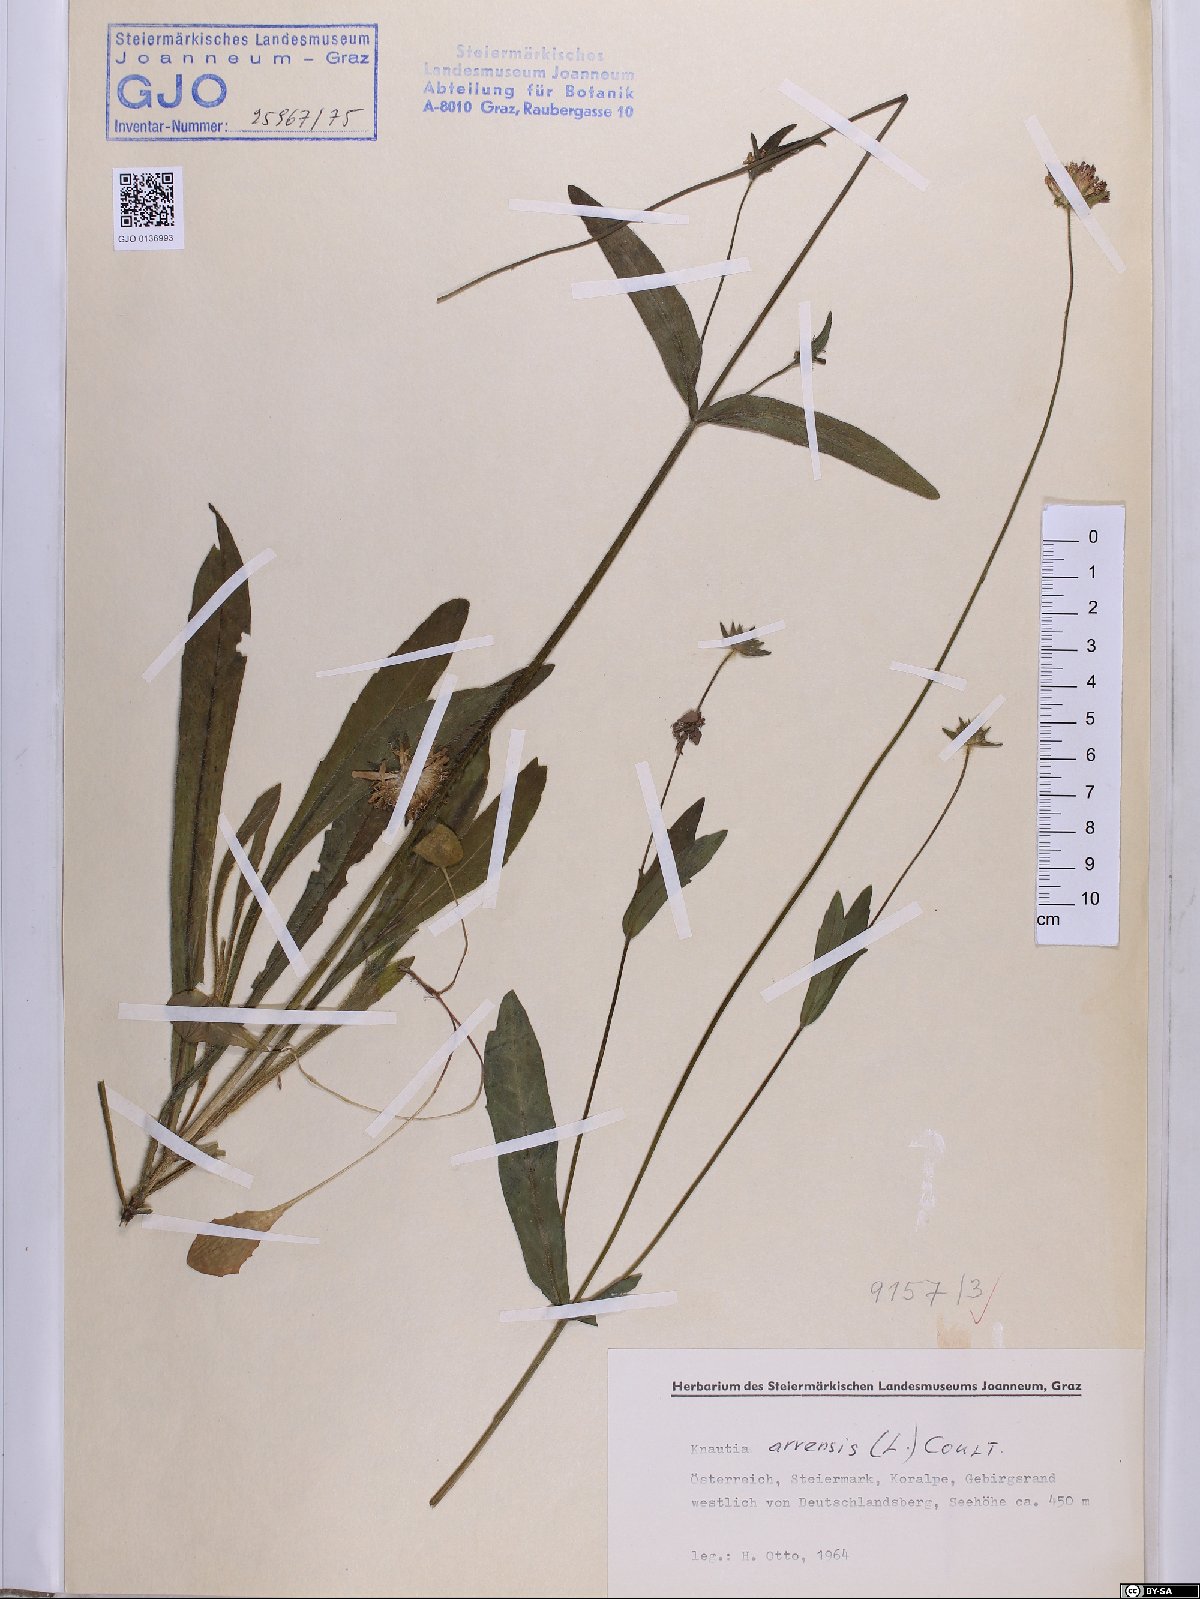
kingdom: Plantae
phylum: Tracheophyta
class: Magnoliopsida
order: Dipsacales
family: Caprifoliaceae
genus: Knautia
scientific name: Knautia arvensis
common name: Field scabiosa
